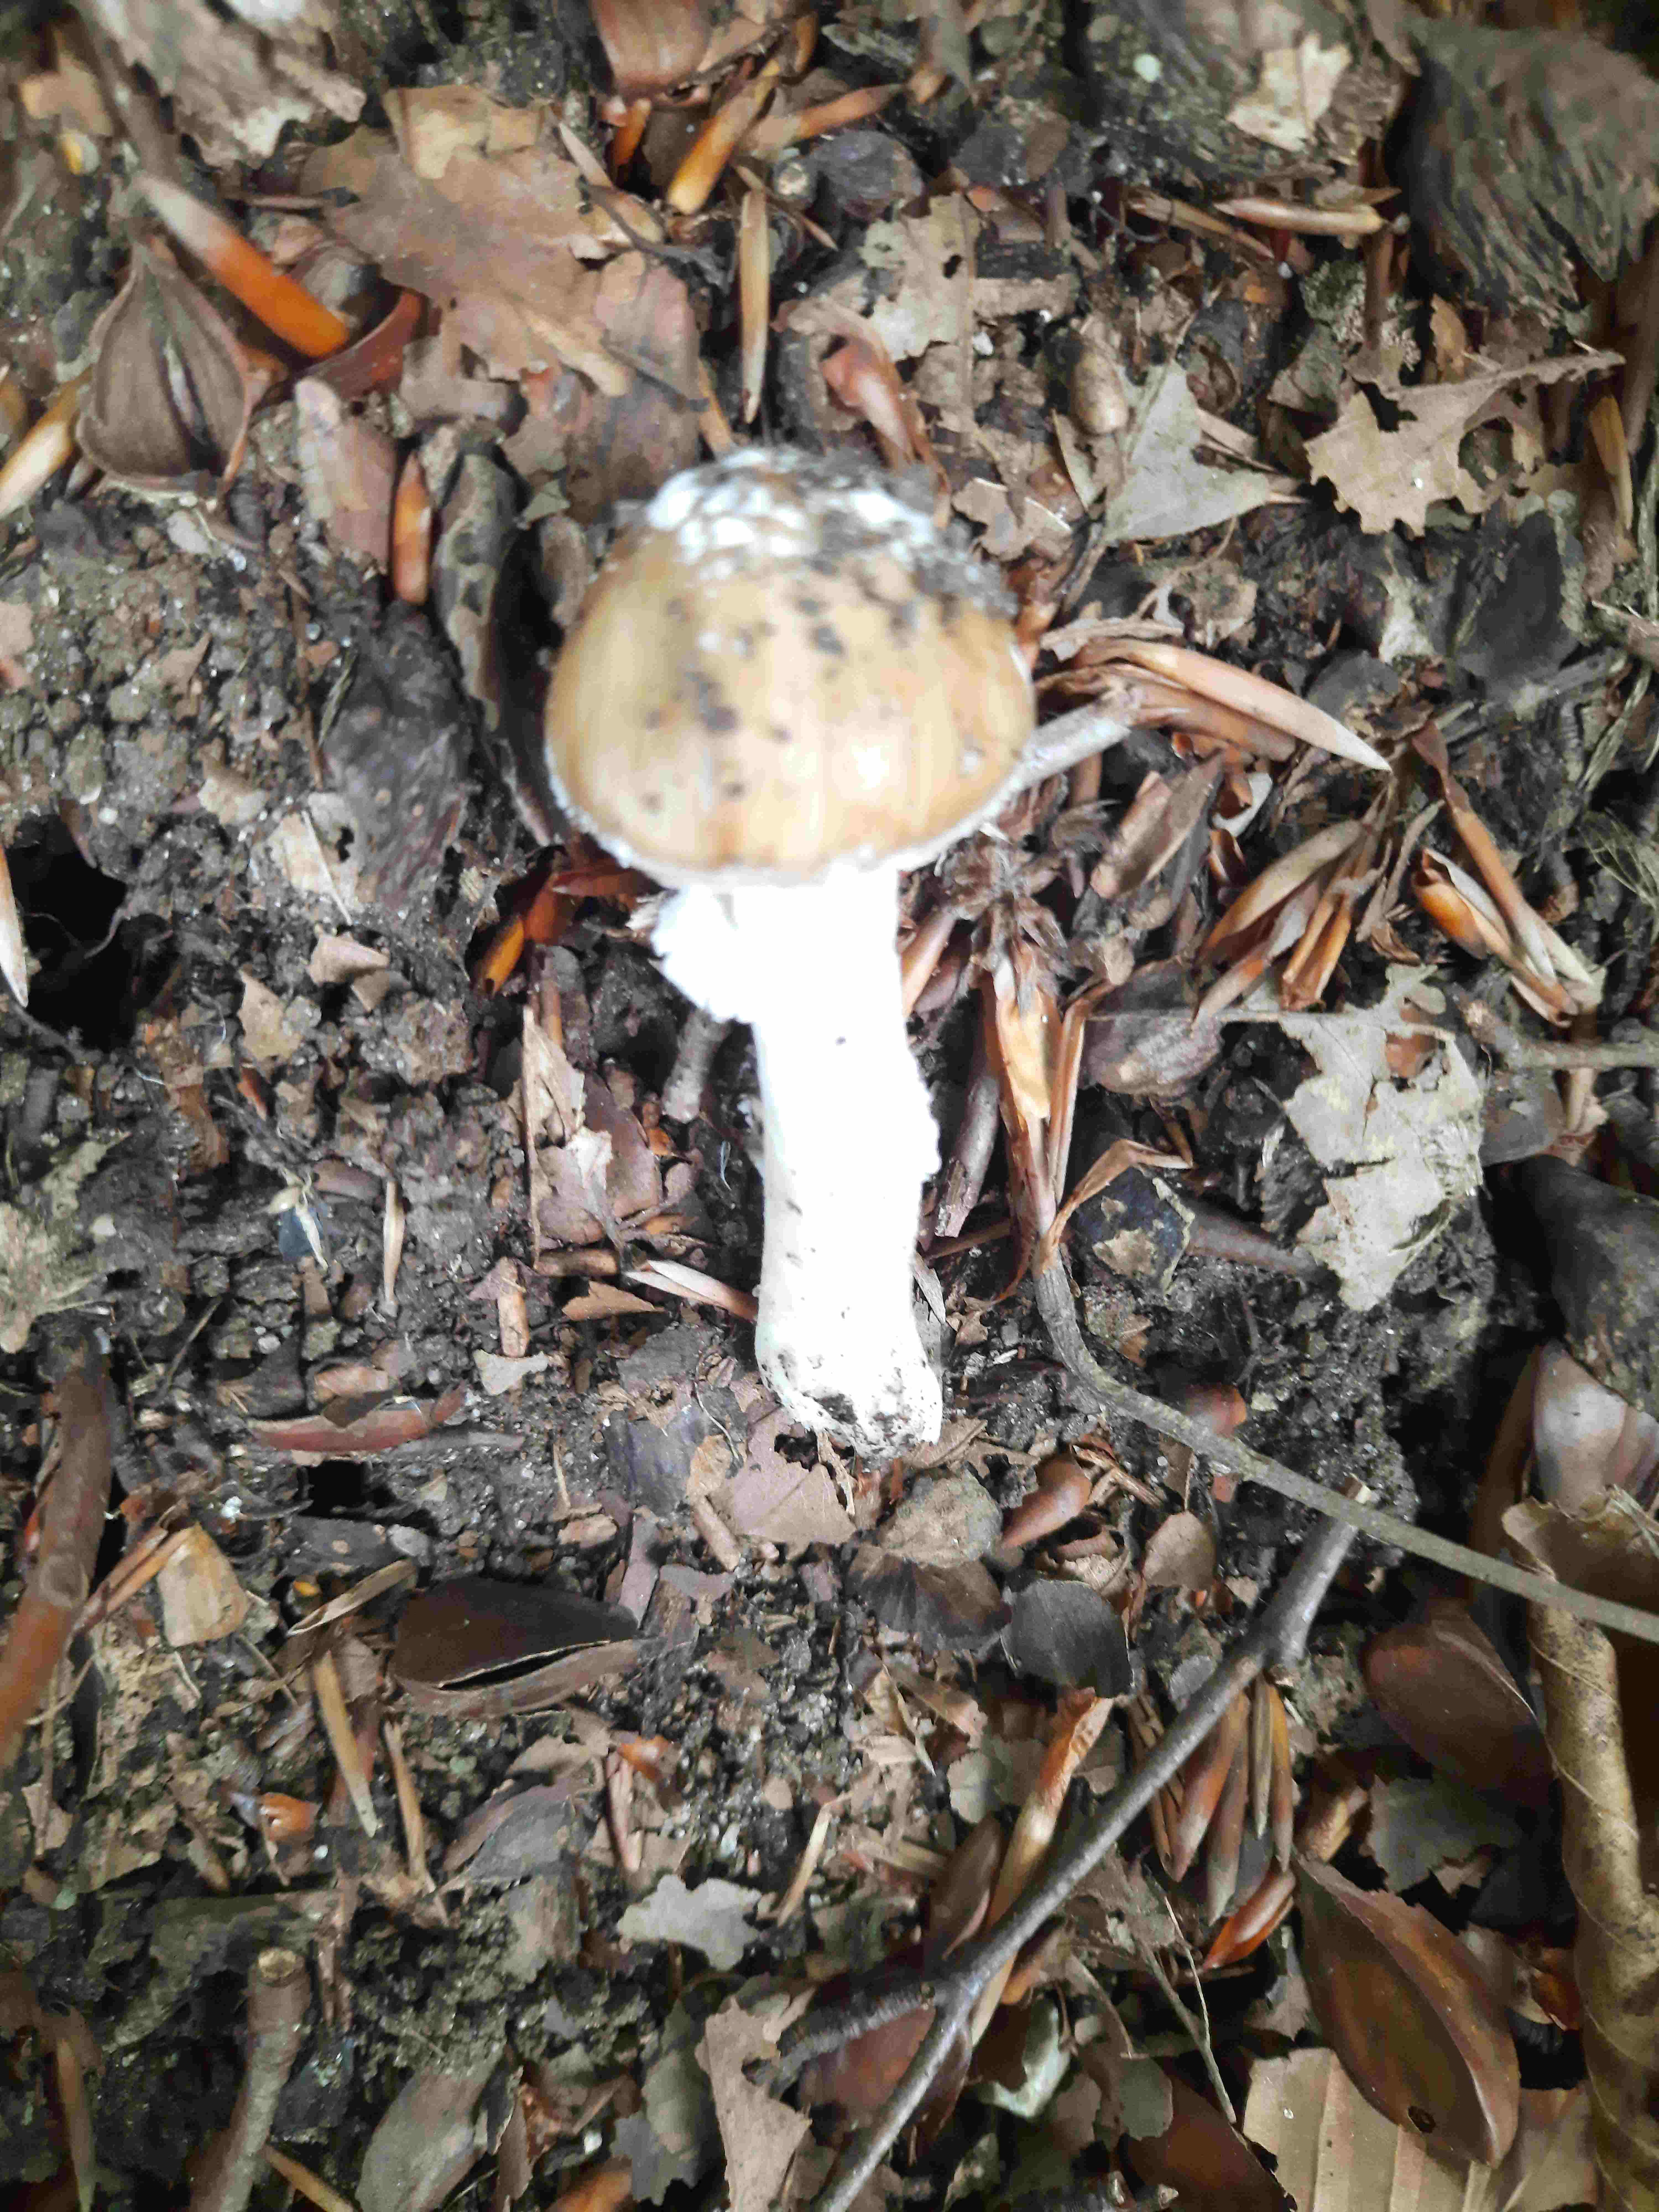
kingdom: Fungi
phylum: Basidiomycota
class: Agaricomycetes
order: Agaricales
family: Amanitaceae
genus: Amanita
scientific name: Amanita
